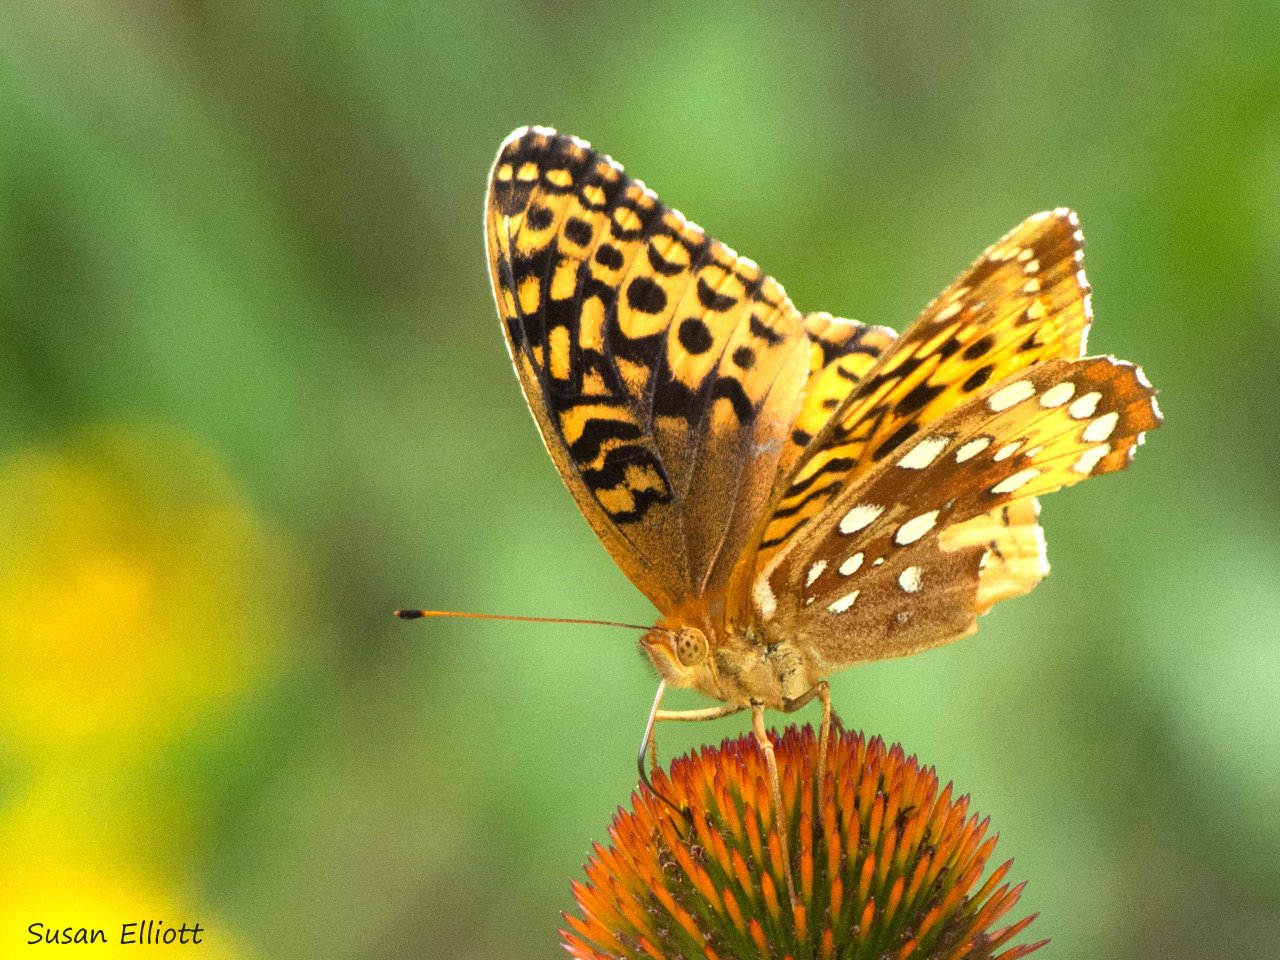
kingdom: Animalia
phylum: Arthropoda
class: Insecta
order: Lepidoptera
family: Nymphalidae
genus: Speyeria
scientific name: Speyeria cybele
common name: Great Spangled Fritillary
